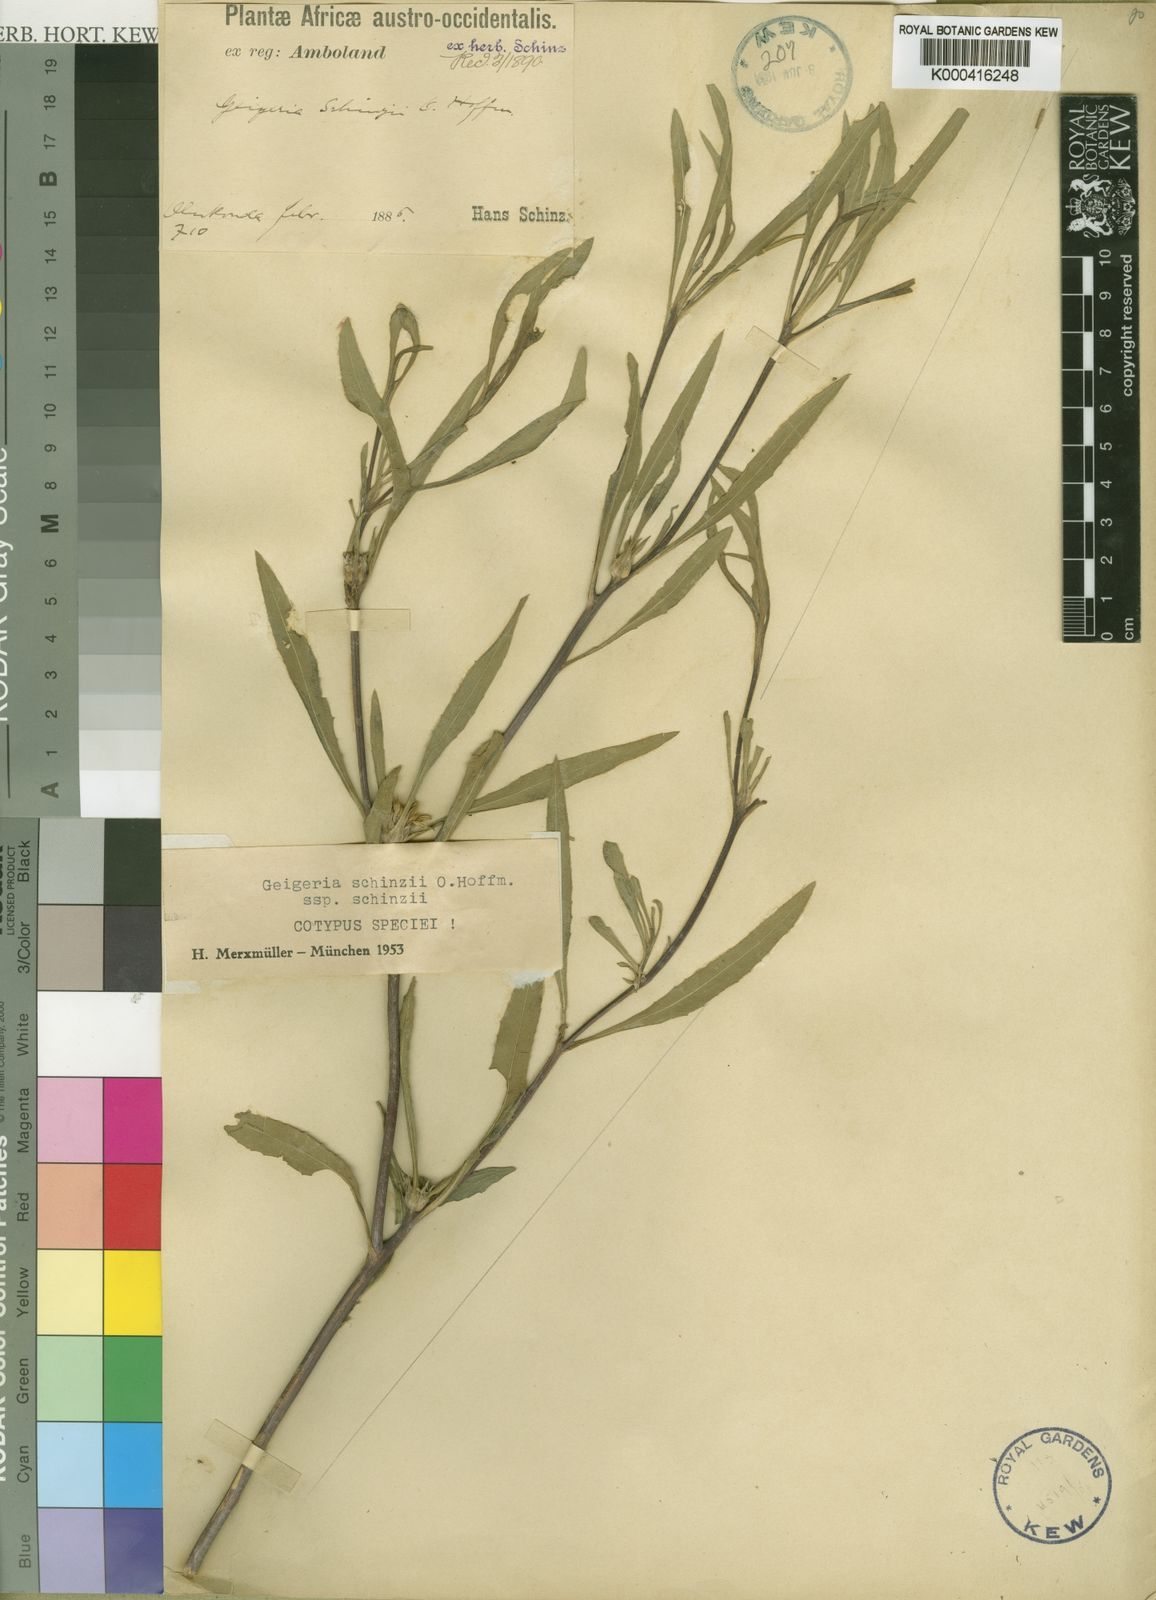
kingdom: Plantae
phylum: Tracheophyta
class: Magnoliopsida
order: Asterales
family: Asteraceae
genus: Geigeria
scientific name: Geigeria schinzii
